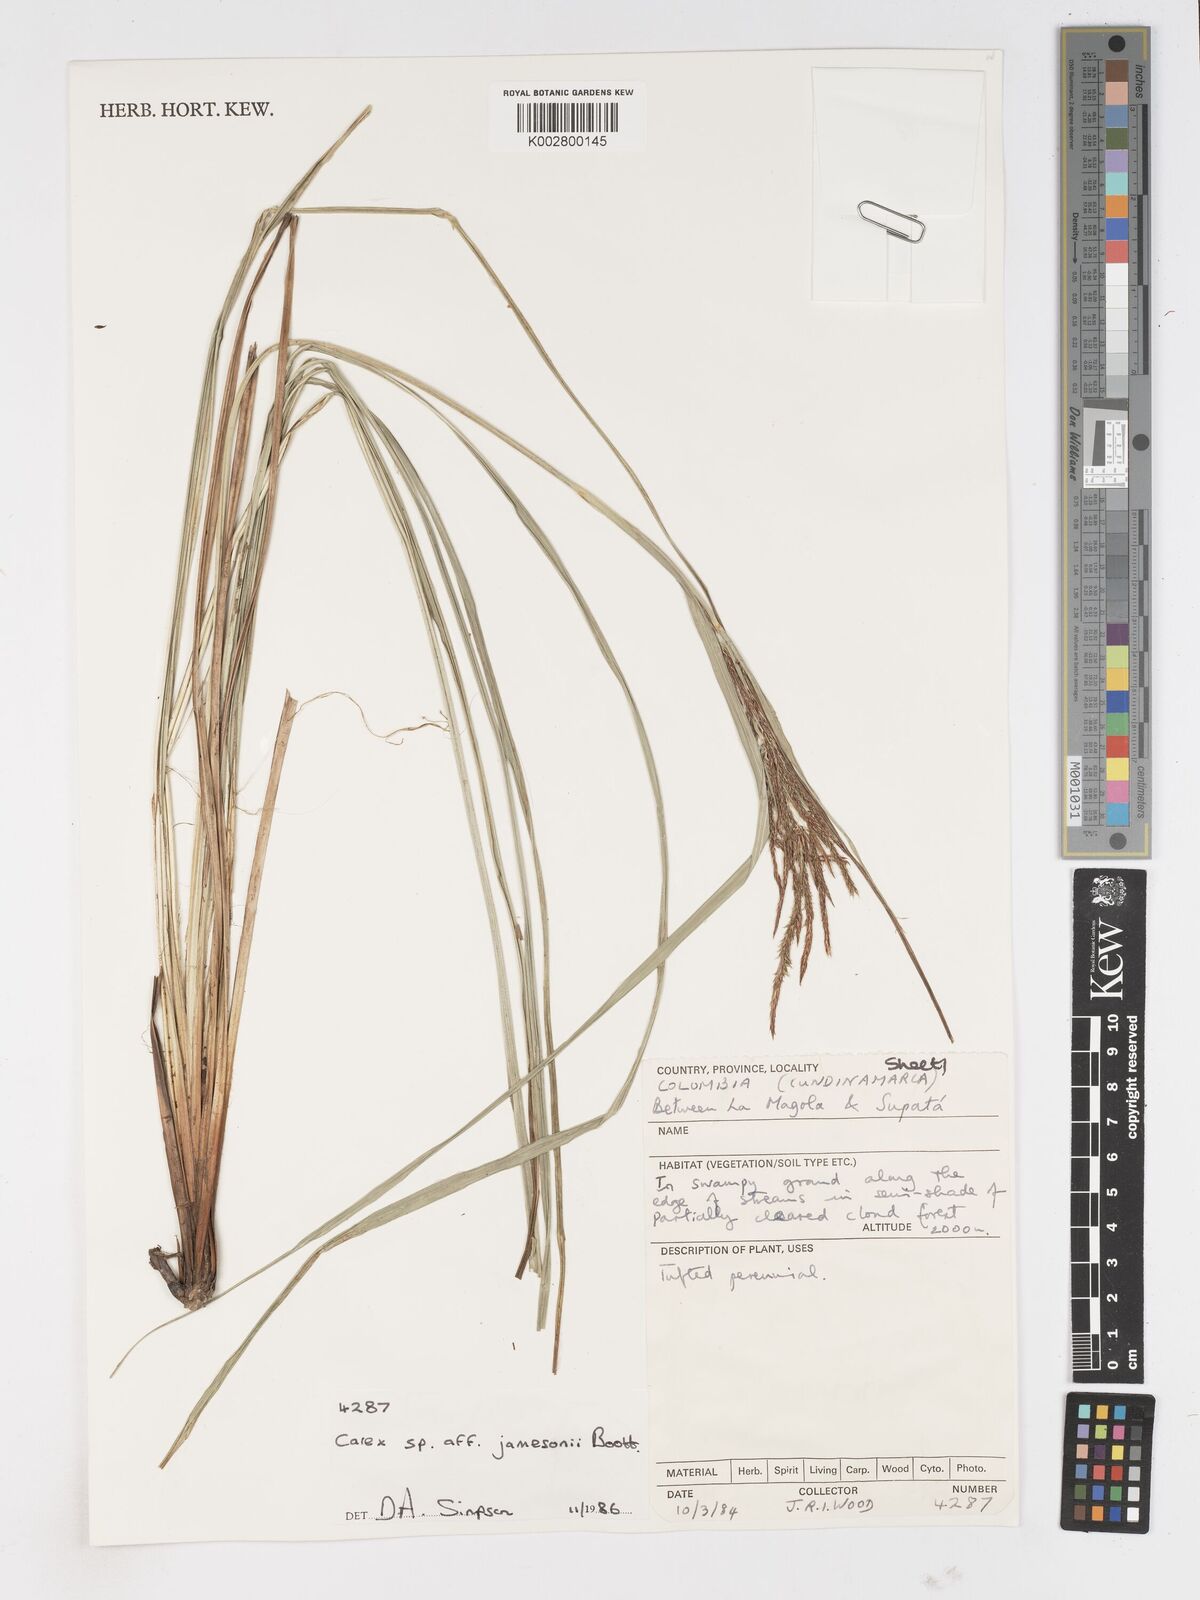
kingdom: Plantae
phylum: Tracheophyta
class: Liliopsida
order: Poales
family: Cyperaceae
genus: Carex
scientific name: Carex jamesonii
